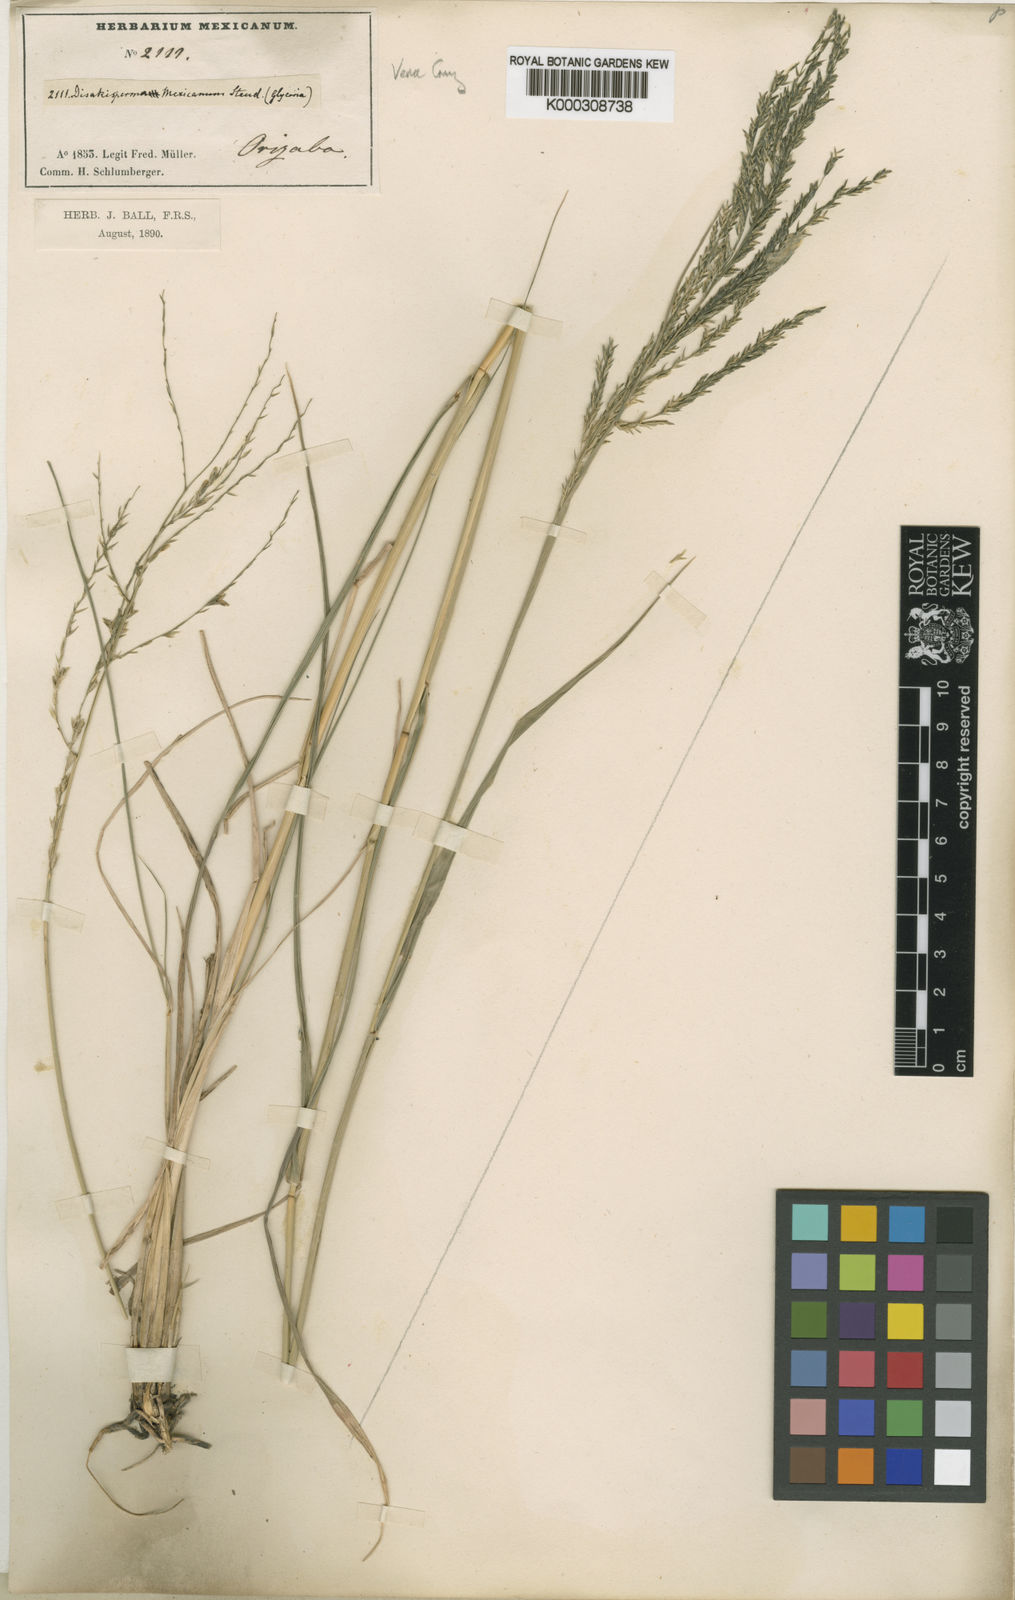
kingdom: Plantae
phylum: Tracheophyta
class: Liliopsida
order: Poales
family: Poaceae
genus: Disakisperma
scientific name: Disakisperma dubium
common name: Green sprangletop
